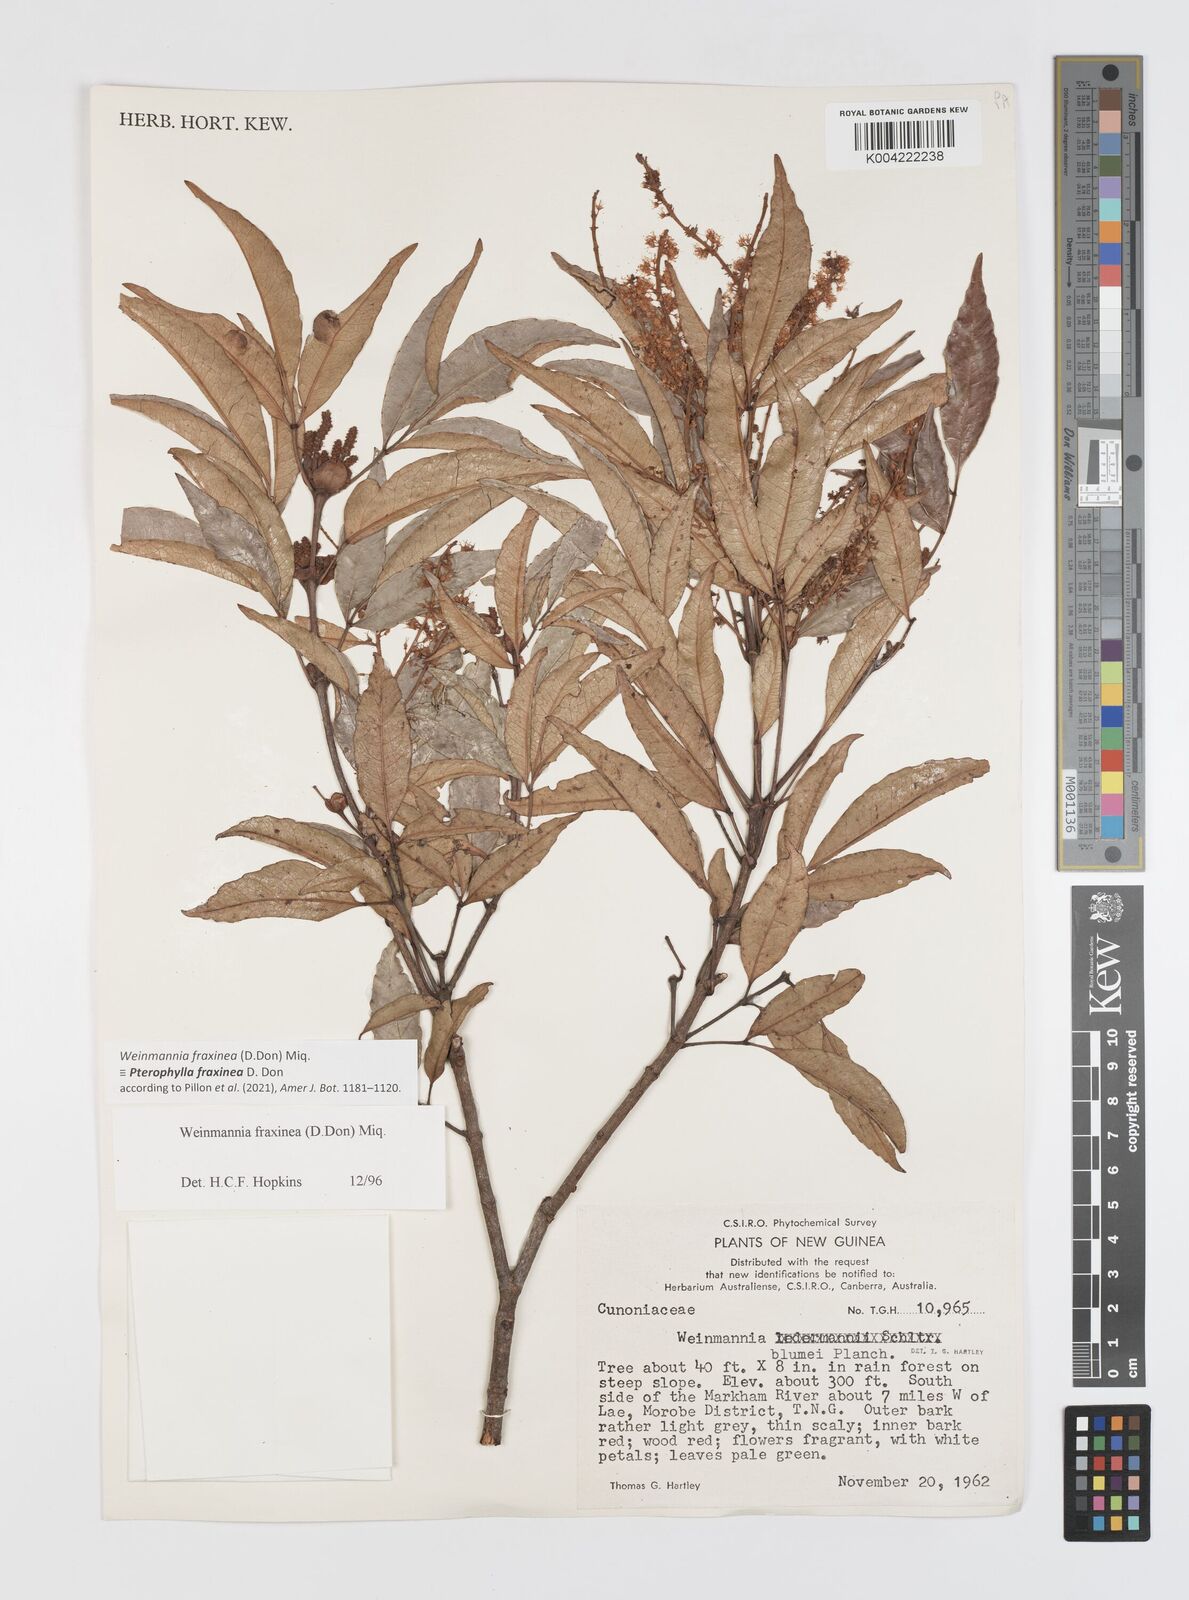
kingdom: Plantae
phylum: Tracheophyta
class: Magnoliopsida
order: Oxalidales
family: Cunoniaceae
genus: Pterophylla
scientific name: Pterophylla fraxinea
